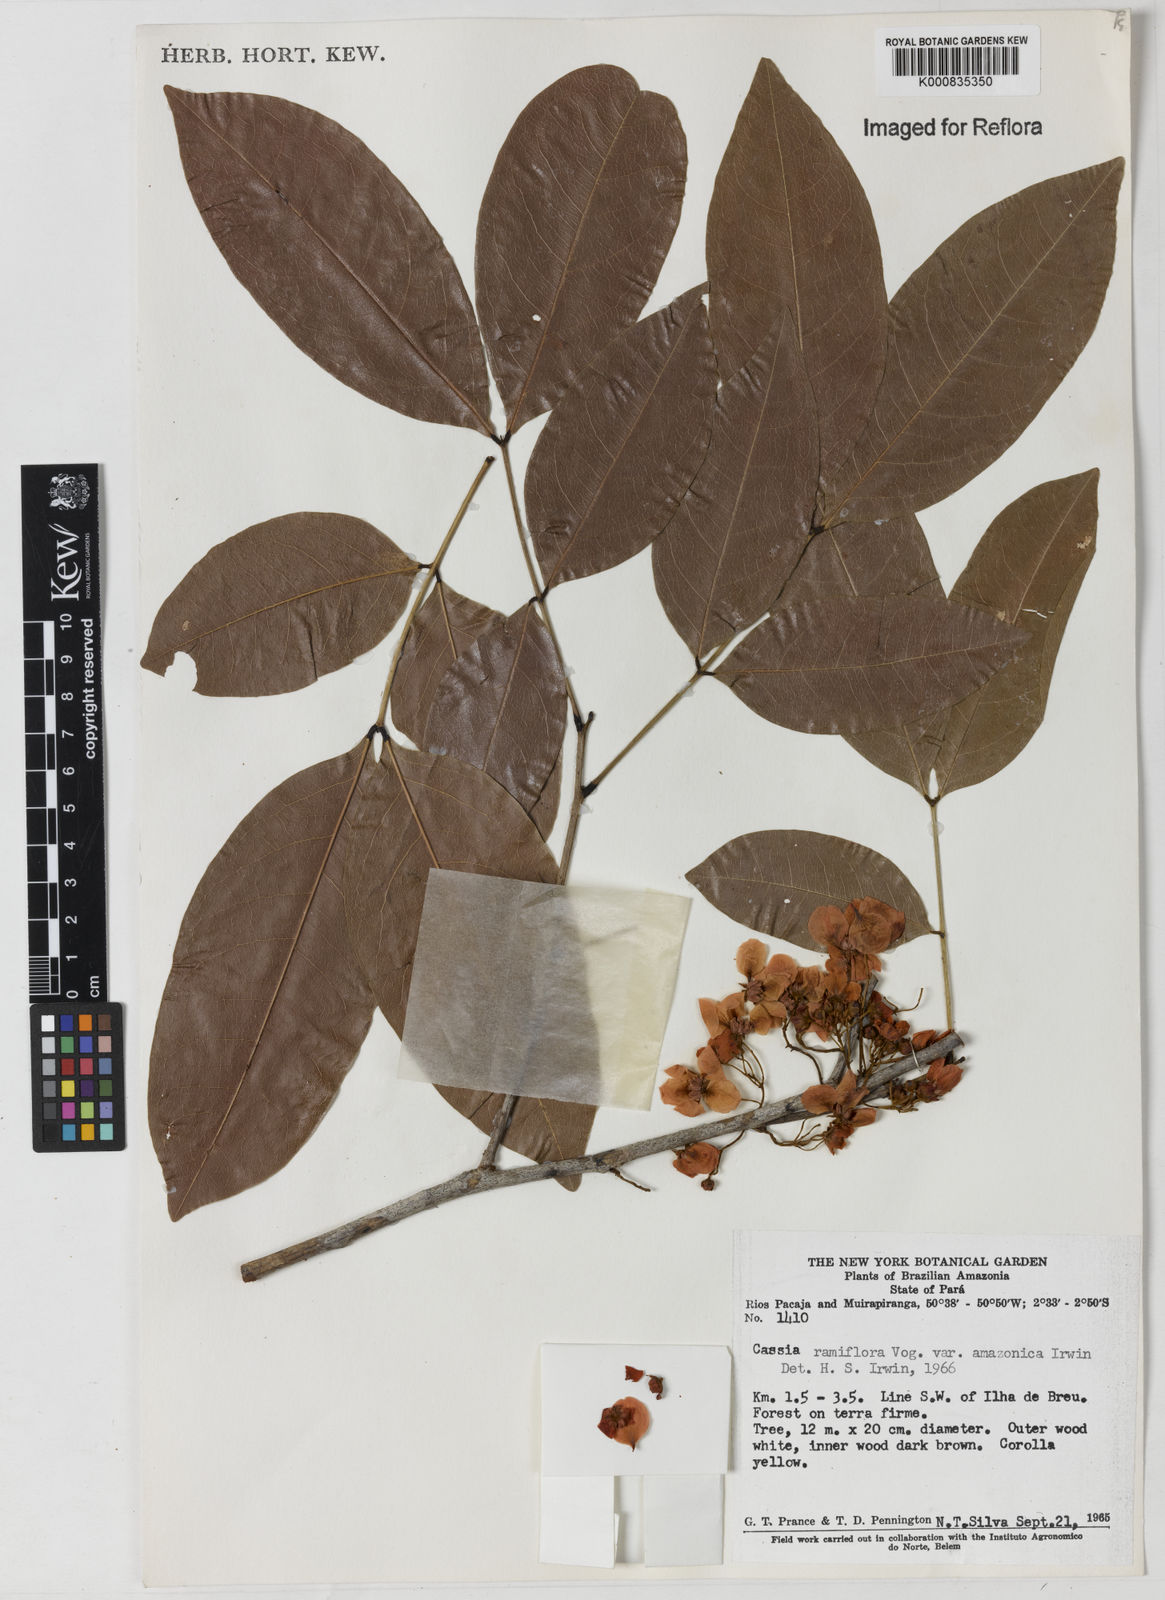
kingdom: Plantae
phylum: Tracheophyta
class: Magnoliopsida
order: Fabales
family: Fabaceae
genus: Chamaecrista
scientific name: Chamaecrista ensiformis
